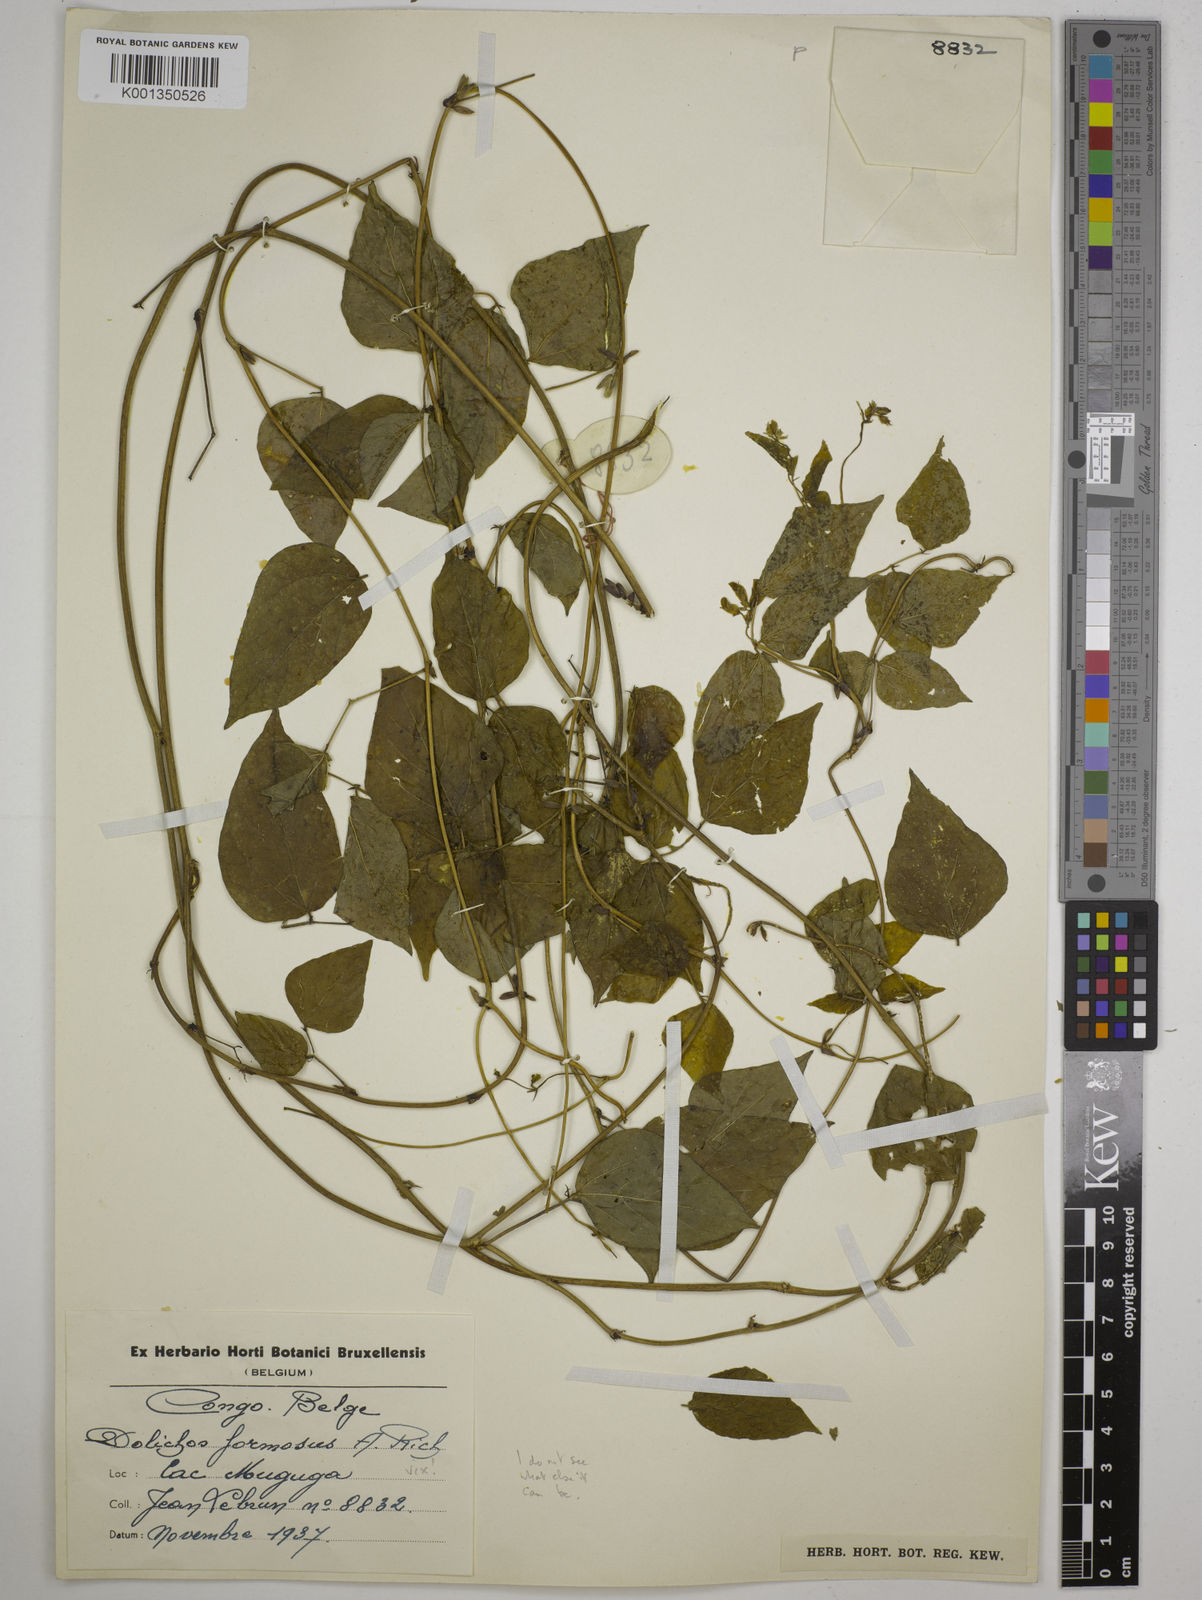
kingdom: Plantae
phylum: Tracheophyta
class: Magnoliopsida
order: Fabales
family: Fabaceae
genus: Dolichos
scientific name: Dolichos
